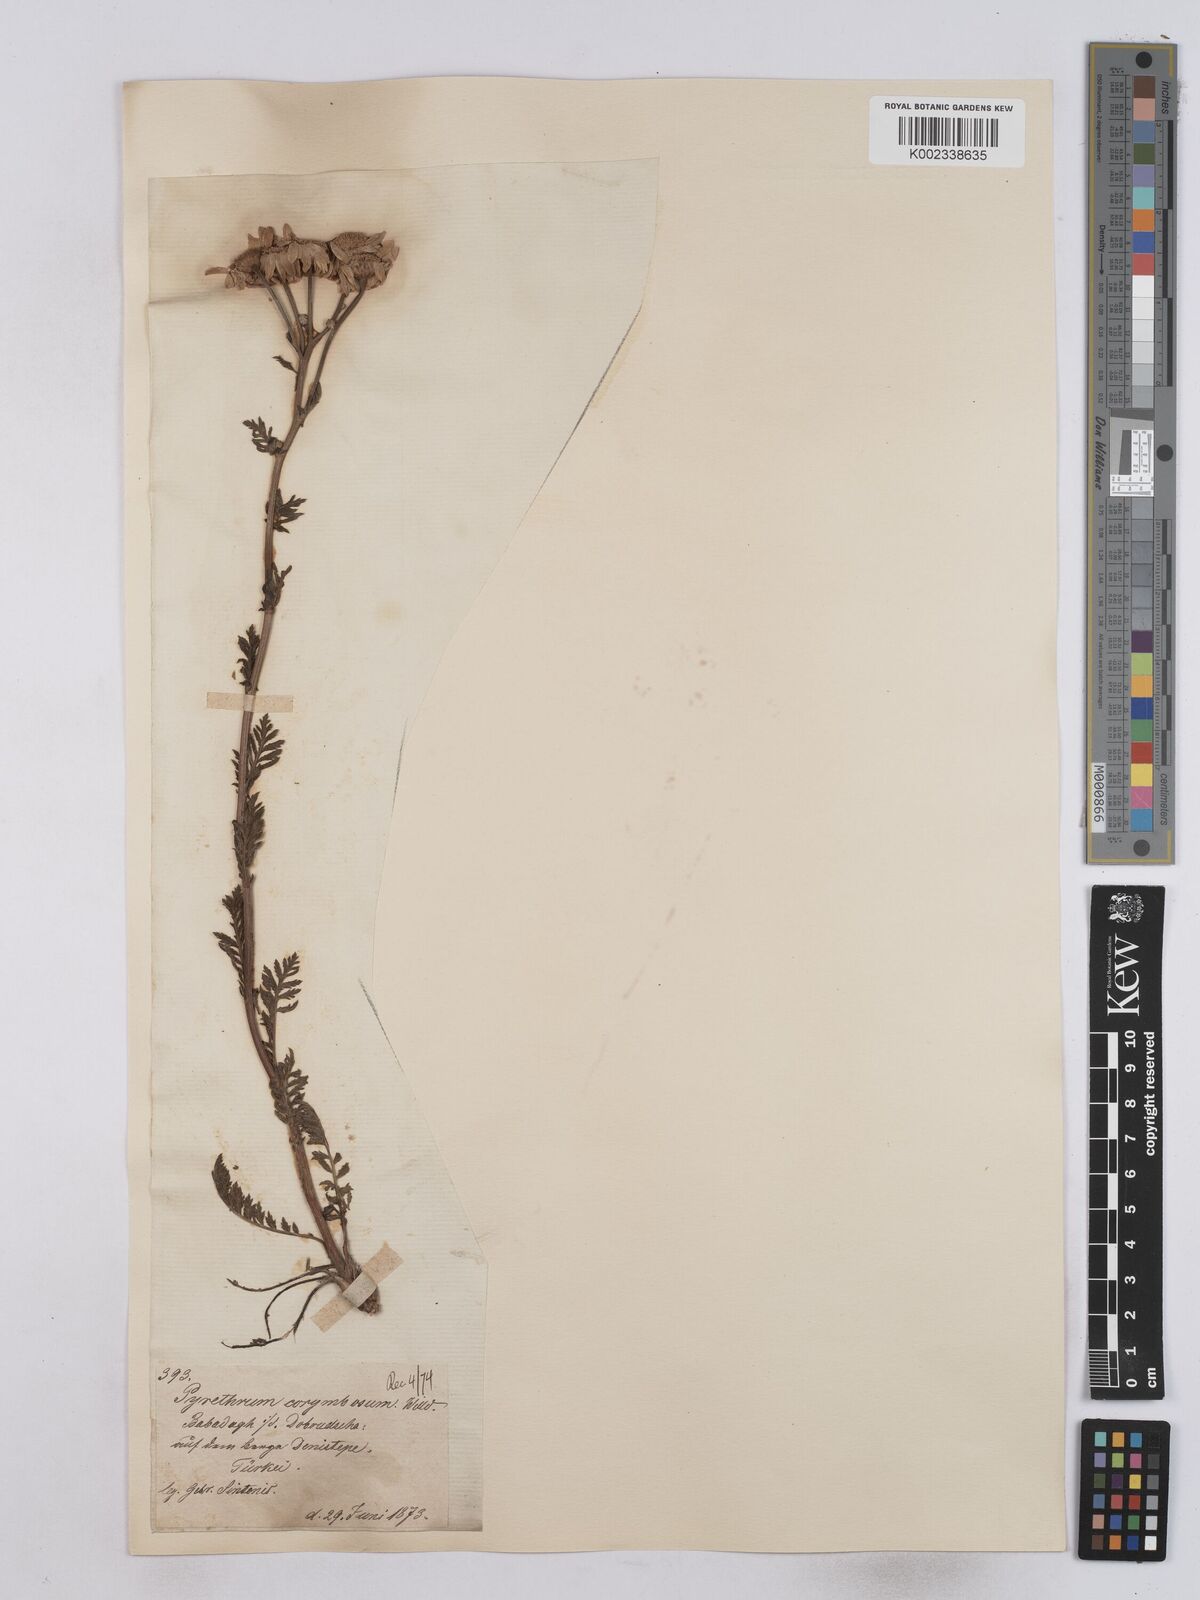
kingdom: Plantae
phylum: Tracheophyta
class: Magnoliopsida
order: Asterales
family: Asteraceae
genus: Tanacetum
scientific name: Tanacetum corymbosum
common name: Scentless feverfew
